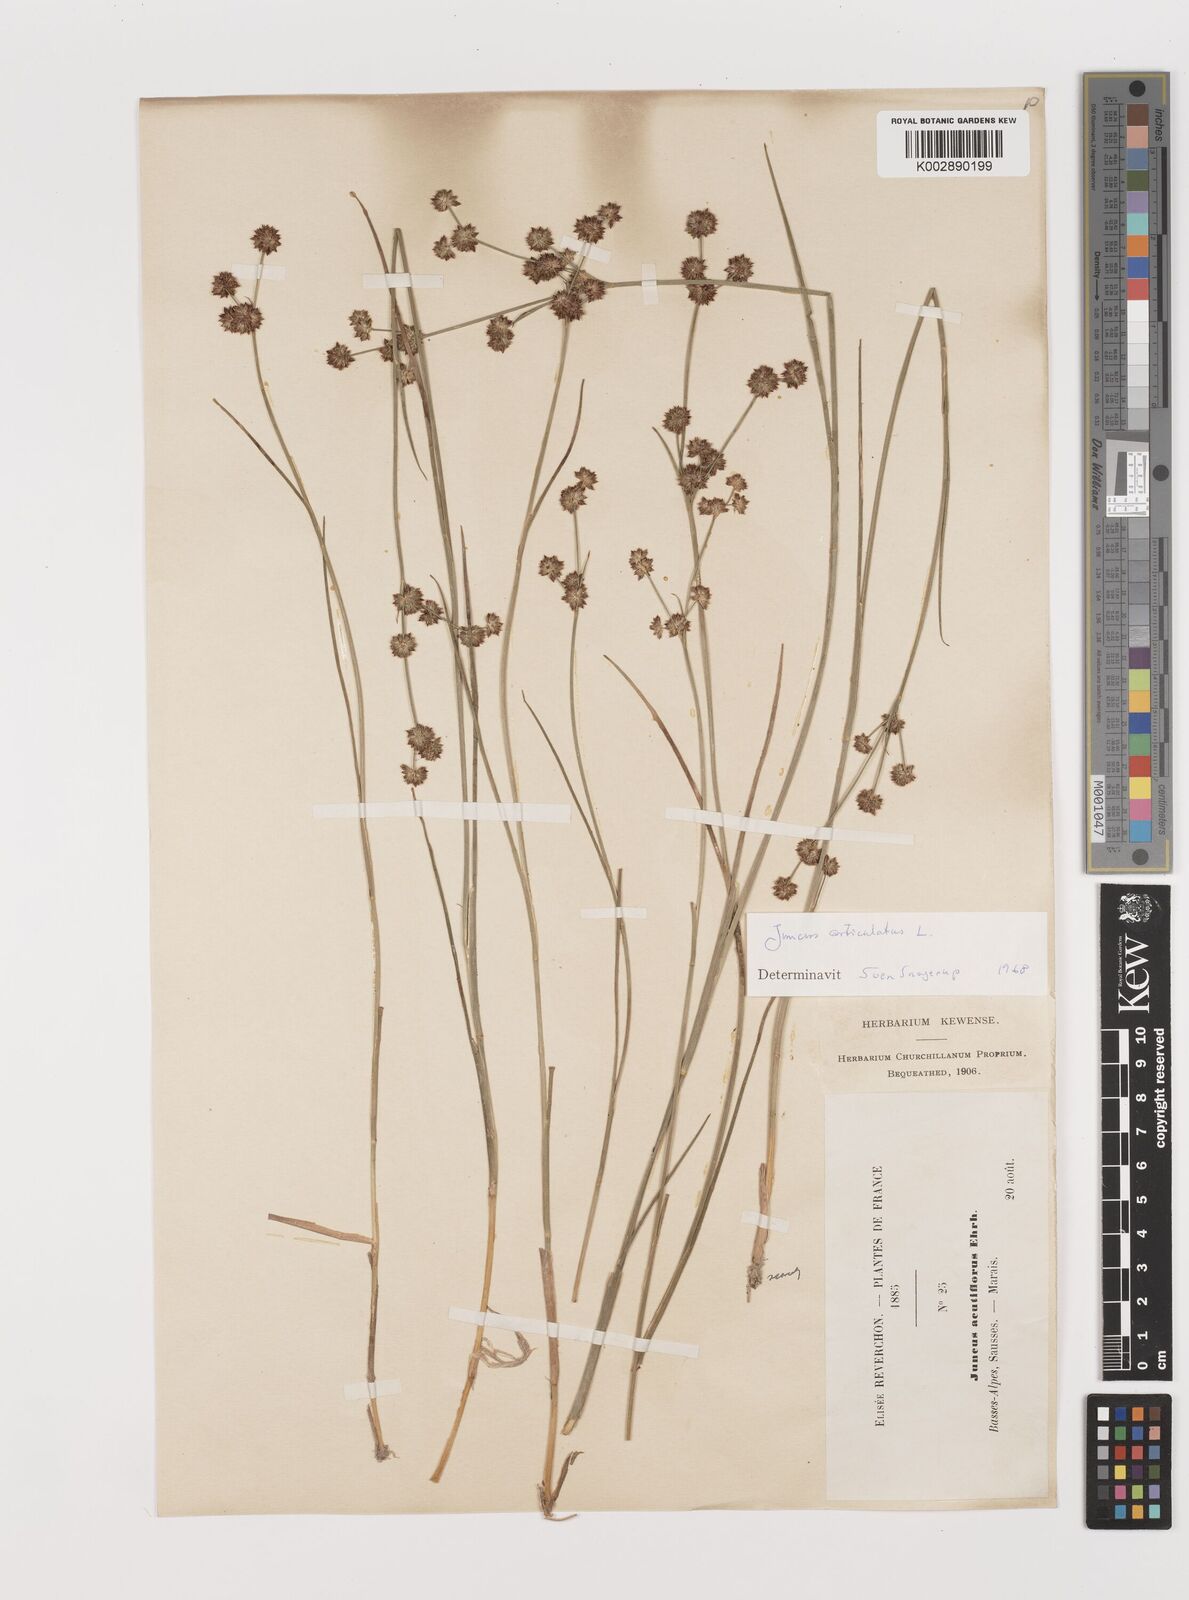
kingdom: Plantae
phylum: Tracheophyta
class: Liliopsida
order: Poales
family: Juncaceae
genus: Juncus
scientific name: Juncus articulatus
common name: Jointed rush
